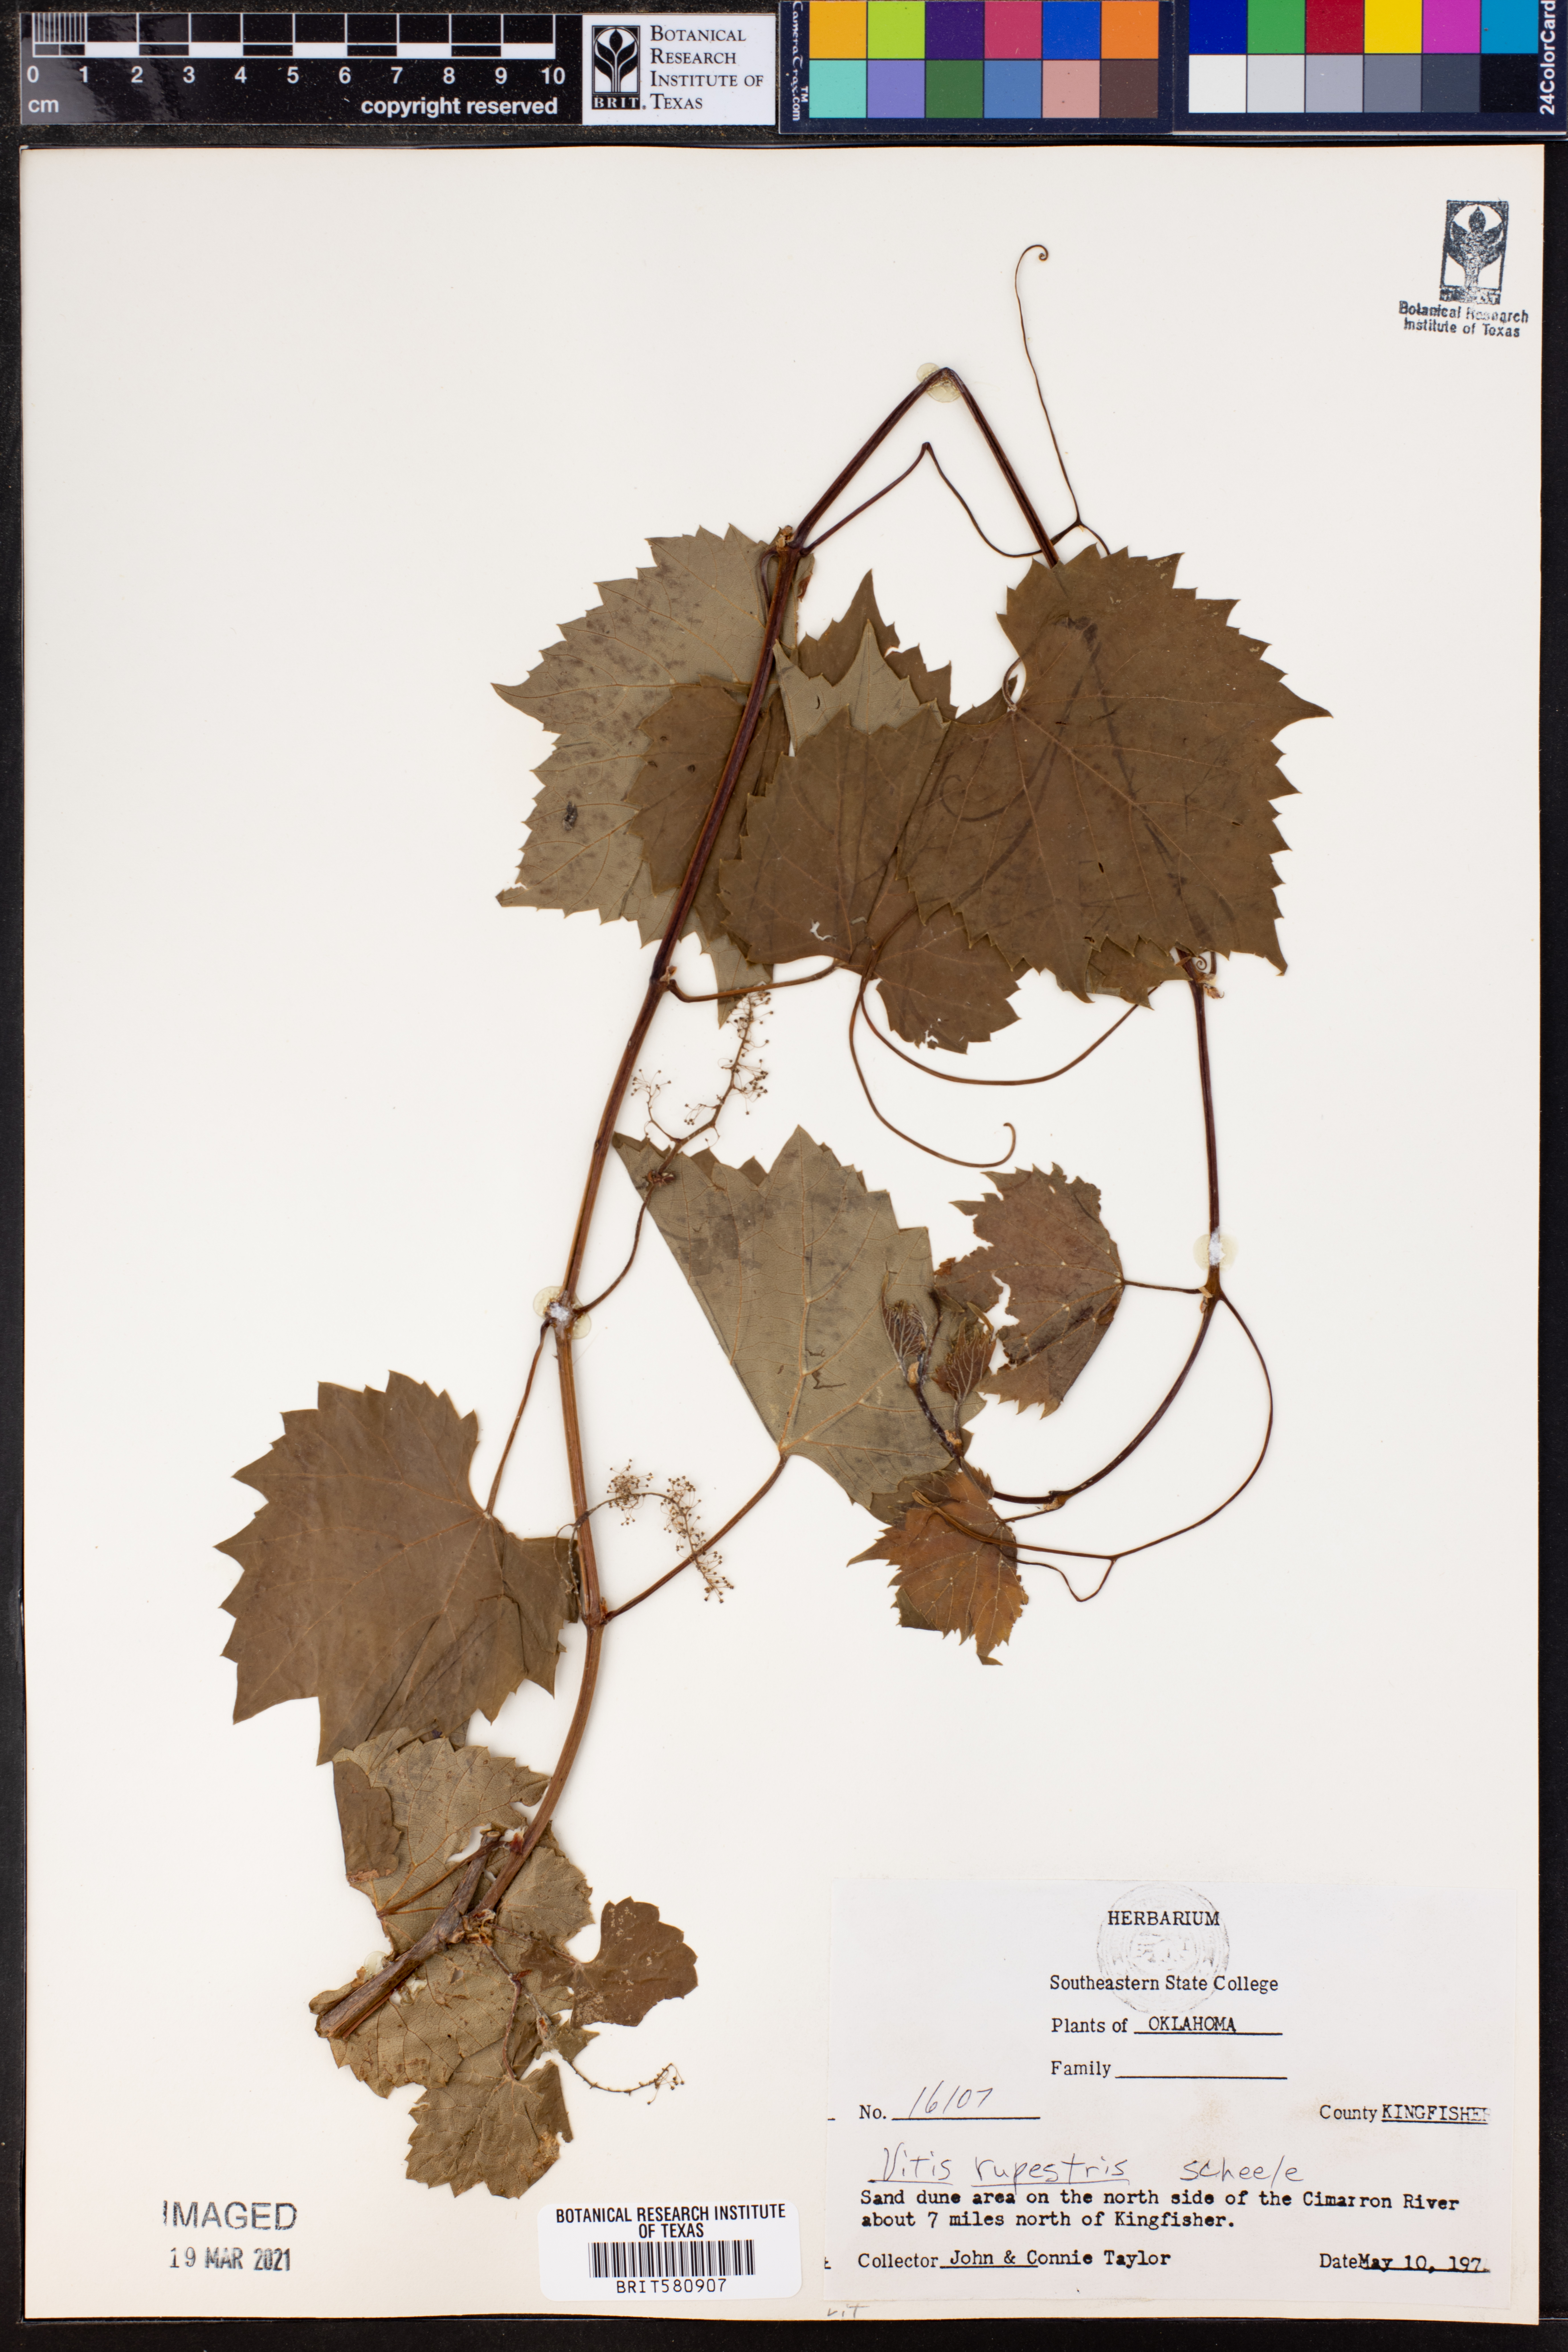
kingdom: Plantae
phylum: Tracheophyta
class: Magnoliopsida
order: Vitales
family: Vitaceae
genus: Vitis
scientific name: Vitis rupestris
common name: Rock grape
